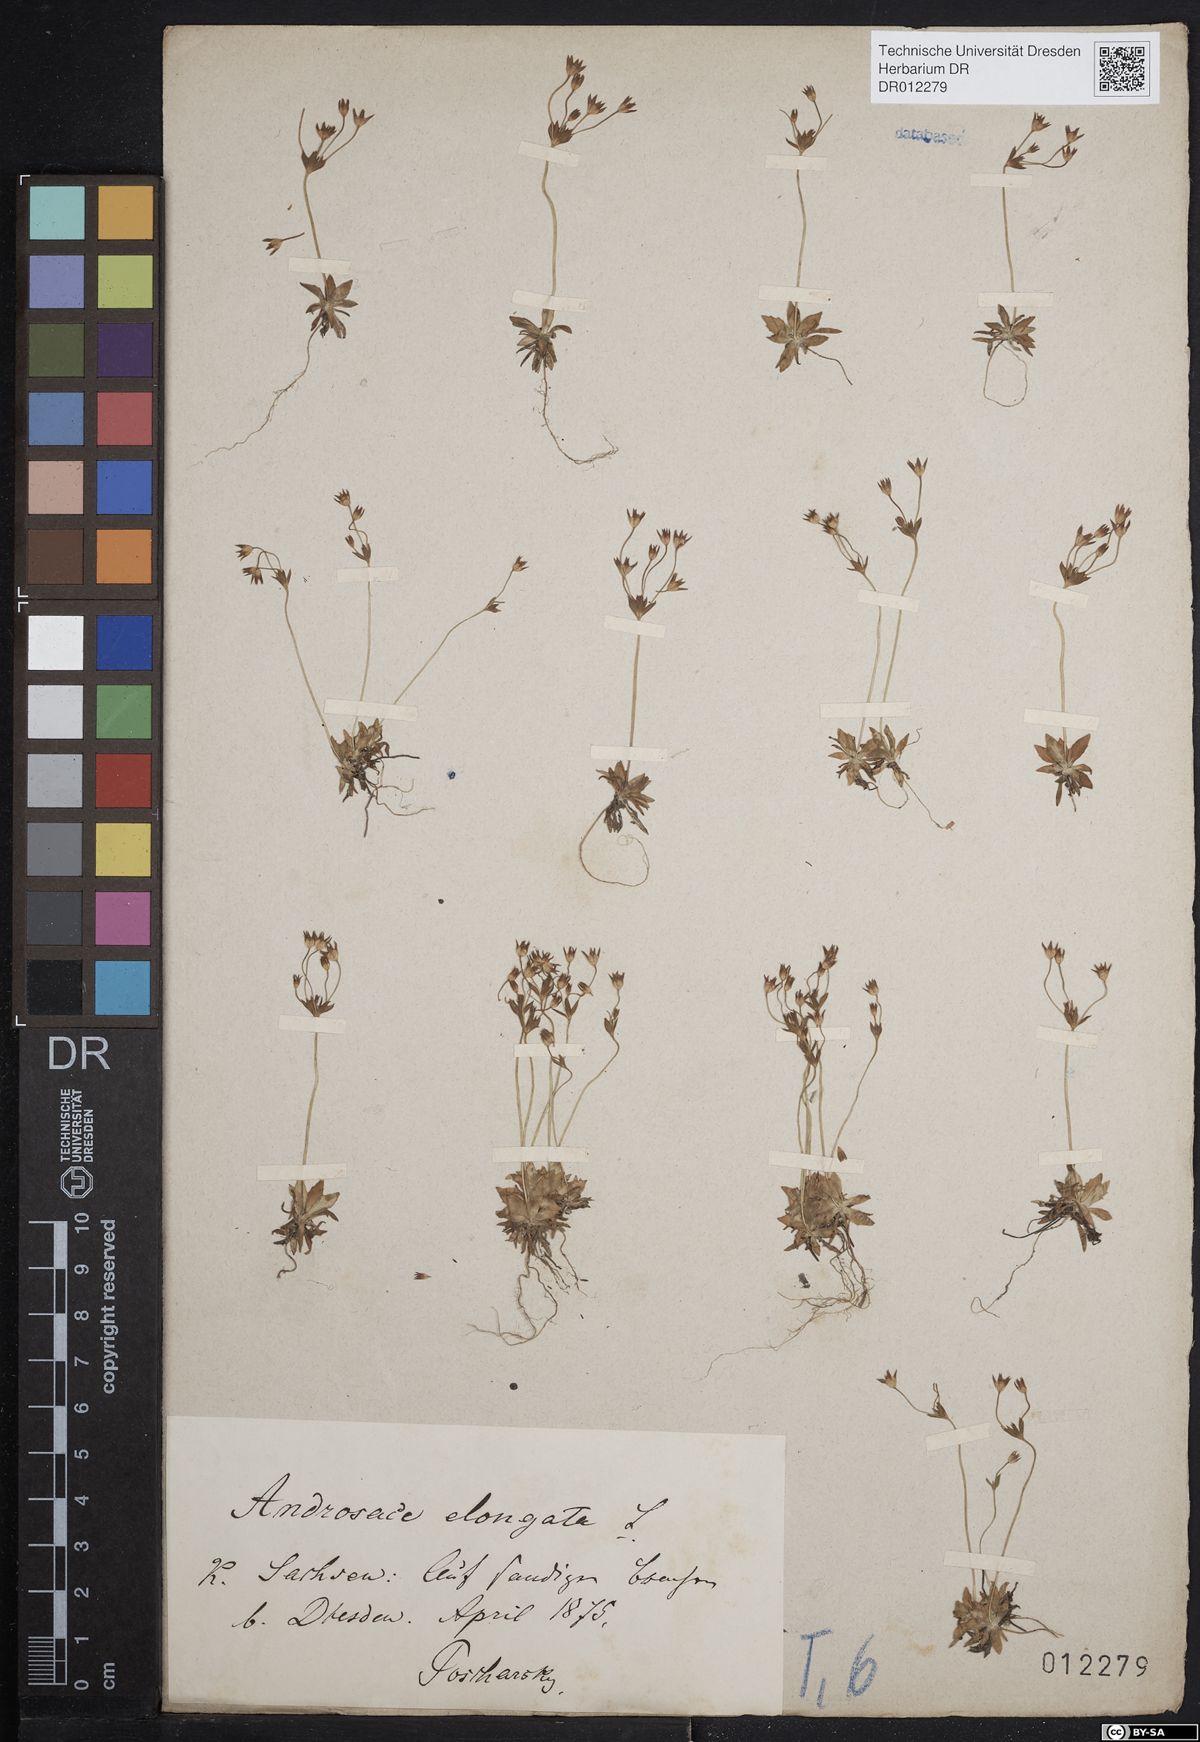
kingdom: Plantae
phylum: Tracheophyta
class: Magnoliopsida
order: Ericales
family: Primulaceae
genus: Androsace
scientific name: Androsace elongata
